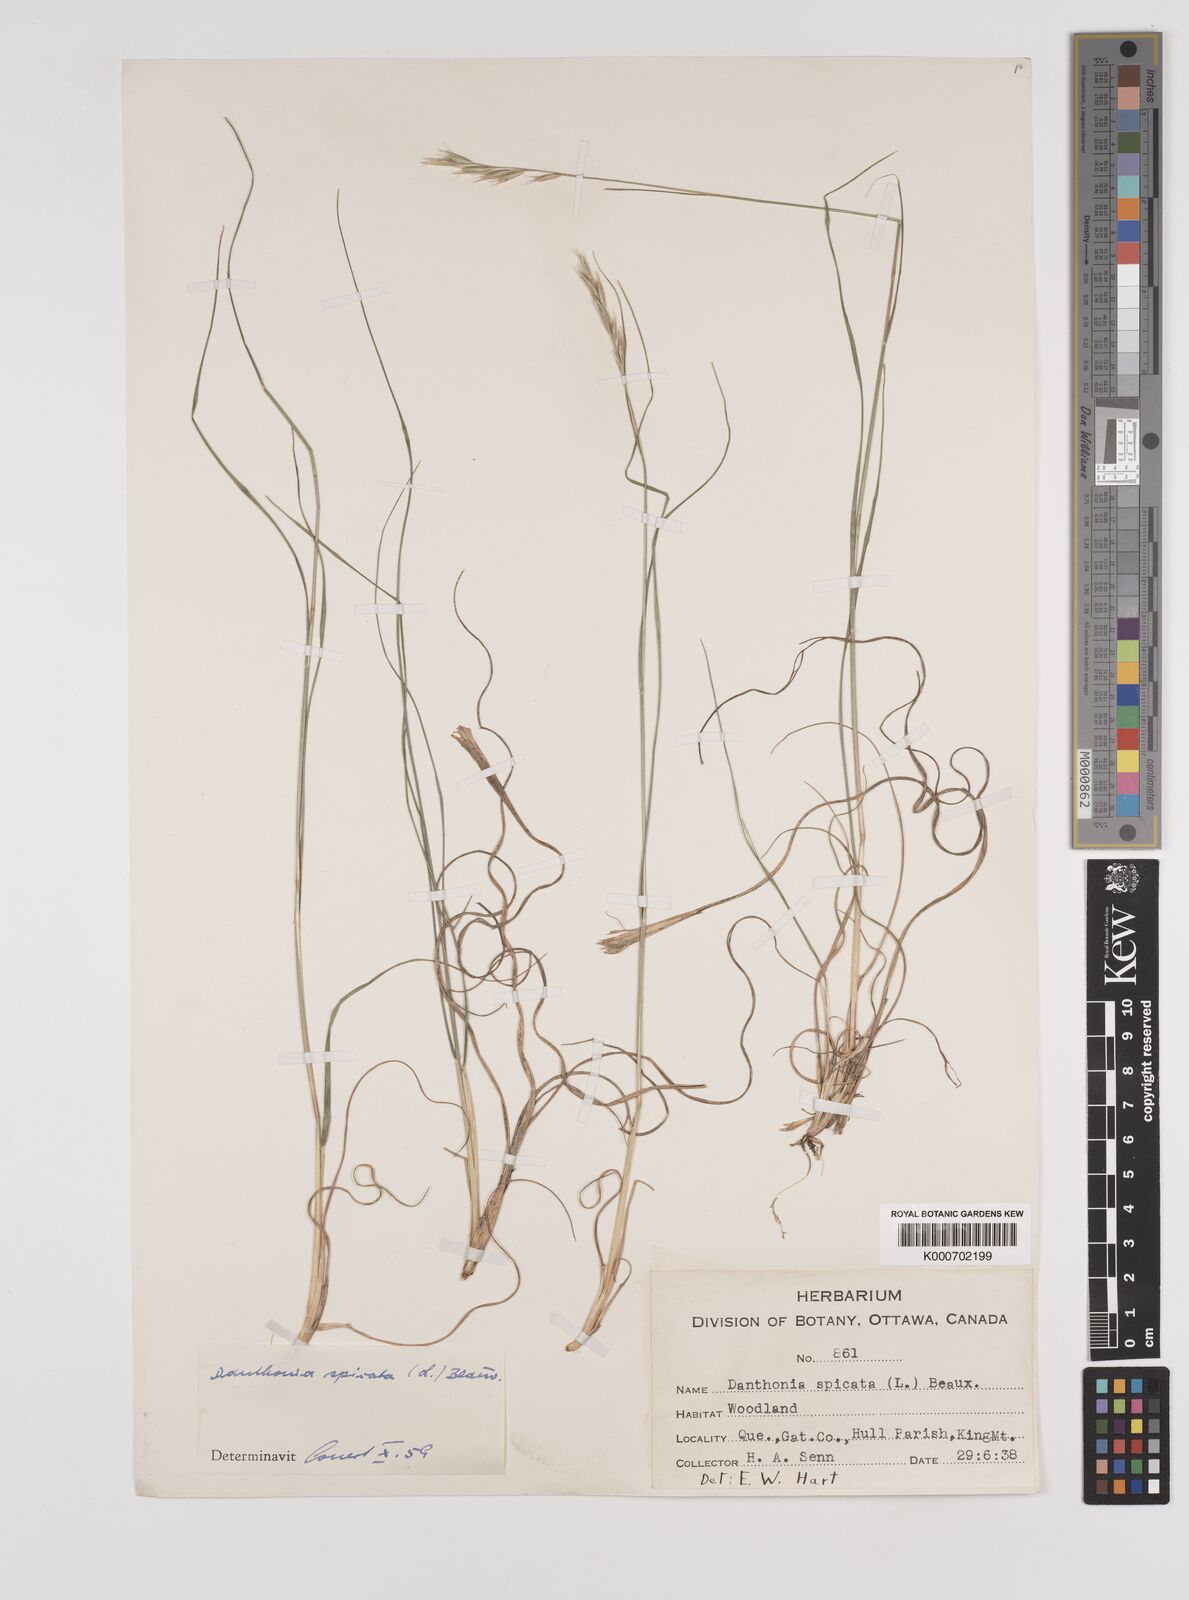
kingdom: Plantae
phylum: Tracheophyta
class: Liliopsida
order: Poales
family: Poaceae
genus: Danthonia
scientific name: Danthonia spicata
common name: Common wild oatgrass
